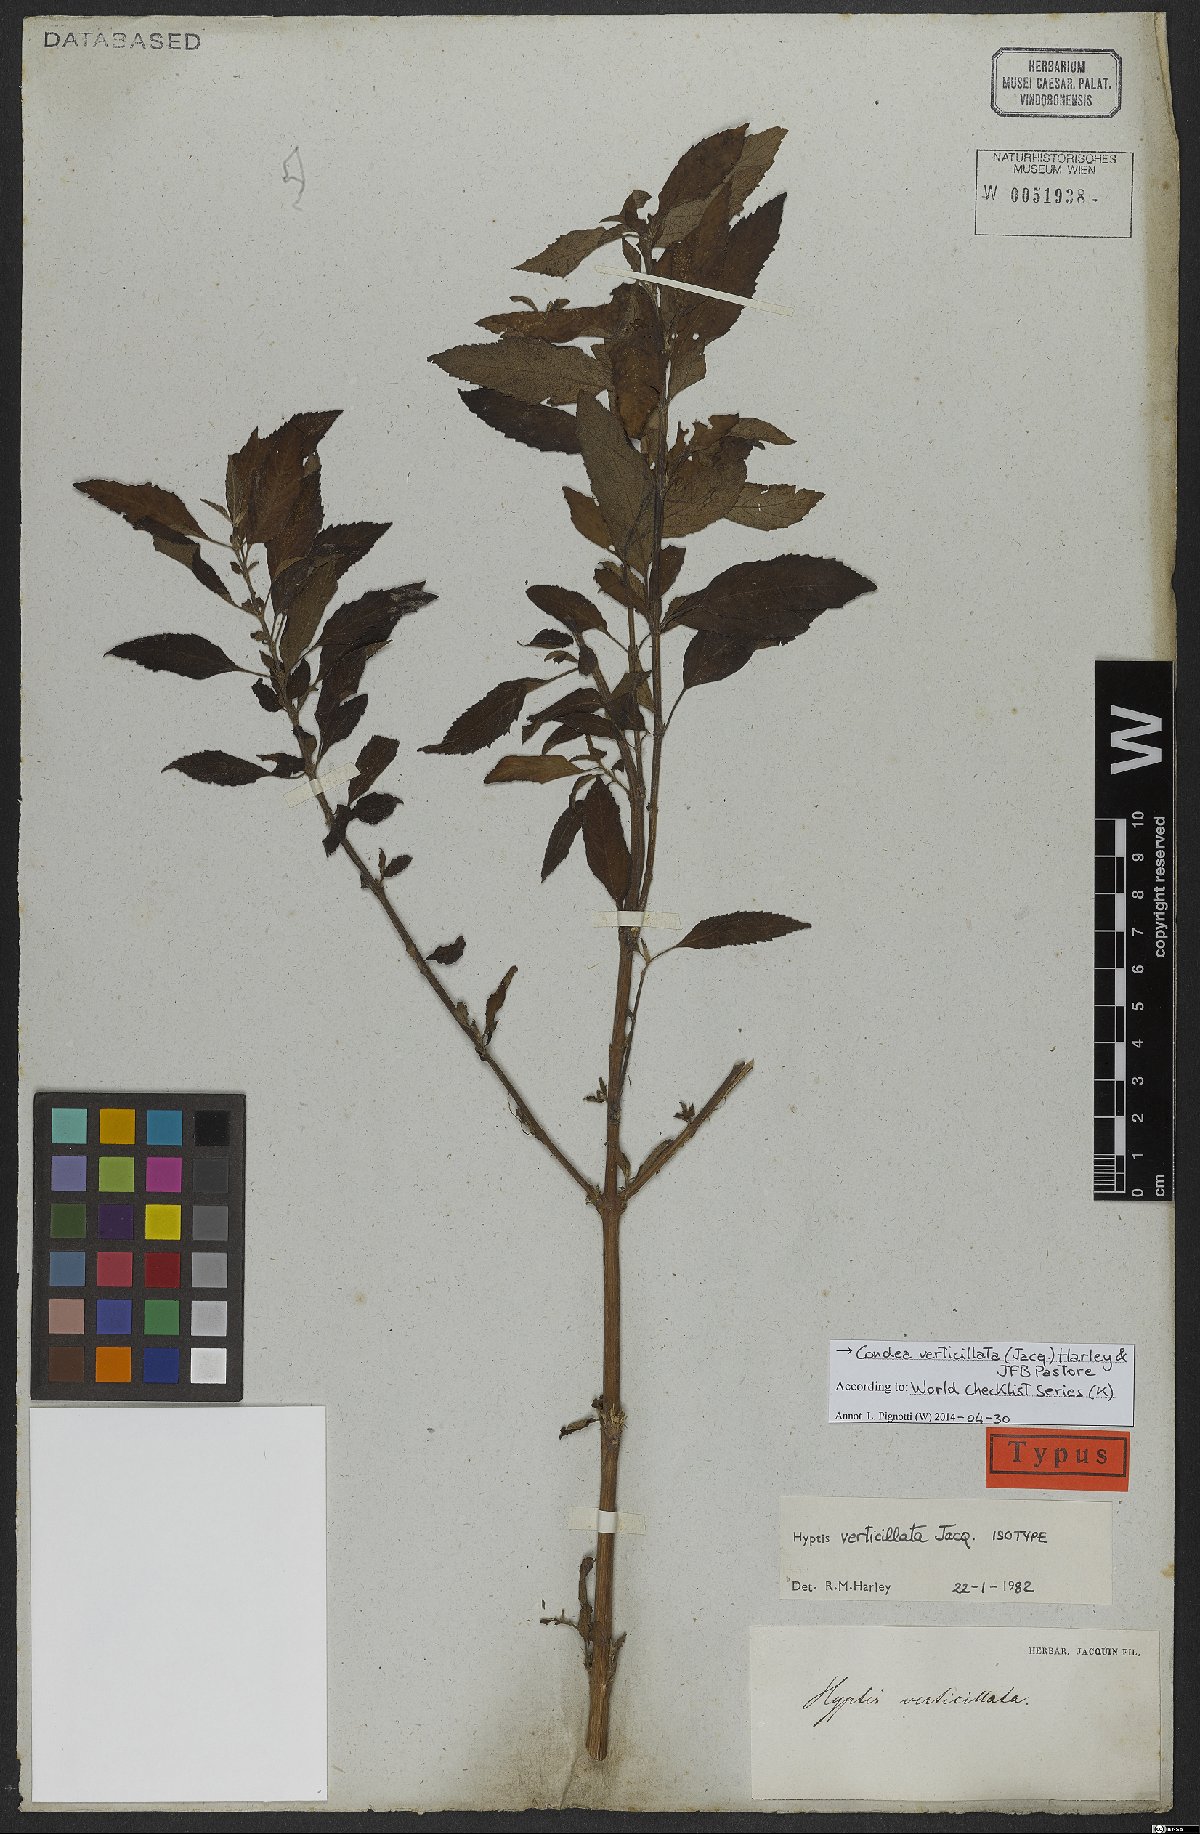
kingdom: Plantae
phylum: Tracheophyta
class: Magnoliopsida
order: Lamiales
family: Lamiaceae
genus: Condea
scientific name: Condea verticillata
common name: John charles
